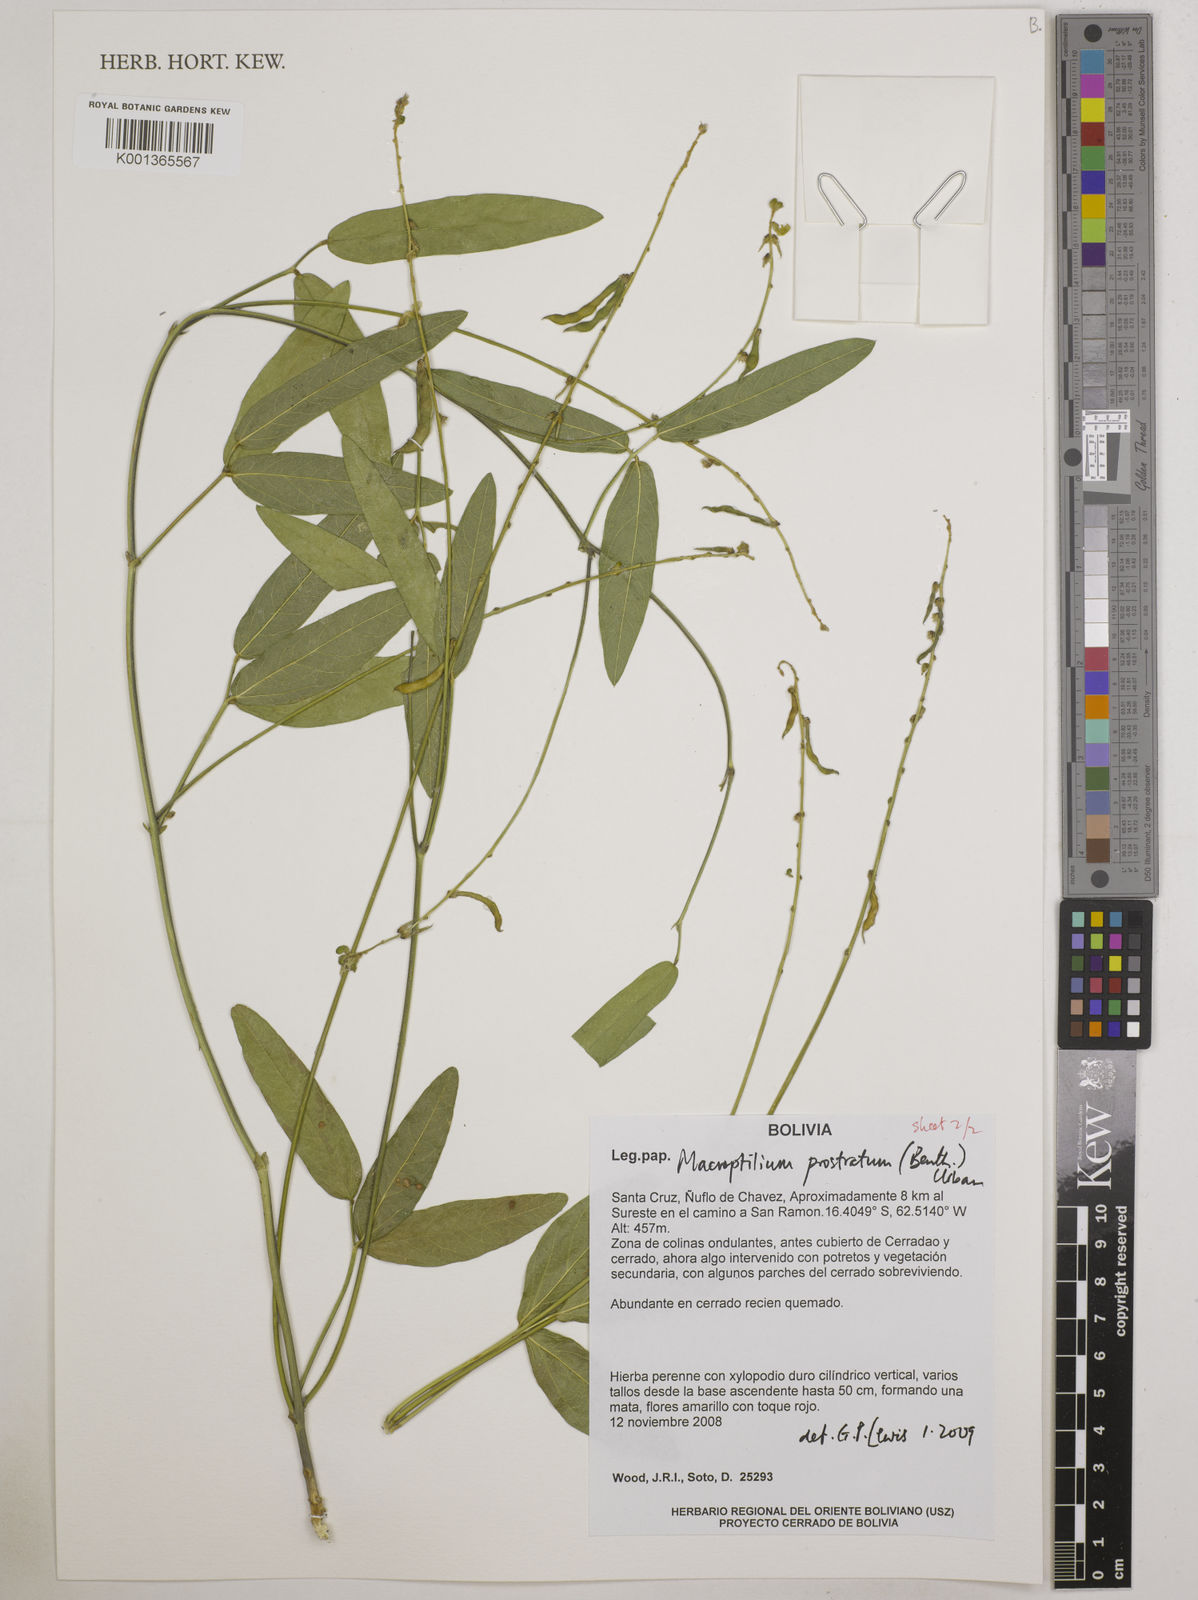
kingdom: Plantae
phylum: Tracheophyta
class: Magnoliopsida
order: Fabales
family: Fabaceae
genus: Macroptilium
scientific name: Macroptilium prostratum
